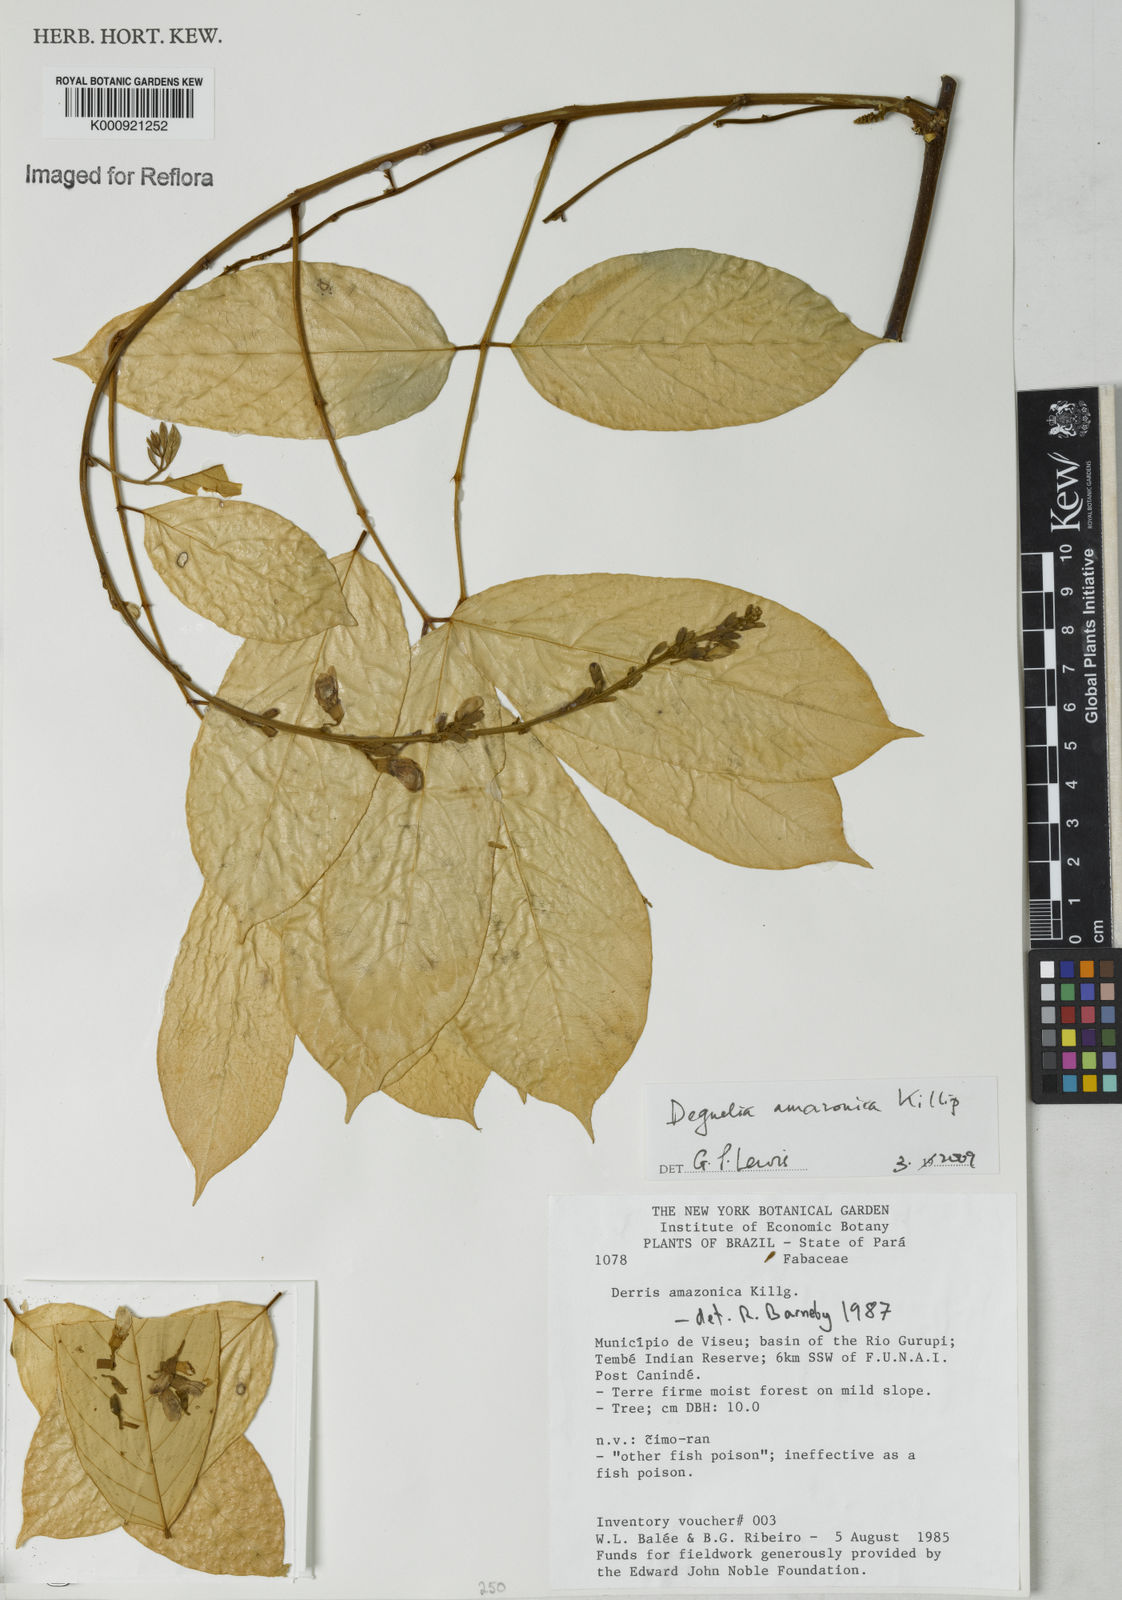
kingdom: Plantae
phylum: Tracheophyta
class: Magnoliopsida
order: Fabales
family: Fabaceae
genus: Deguelia
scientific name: Deguelia amazonica
